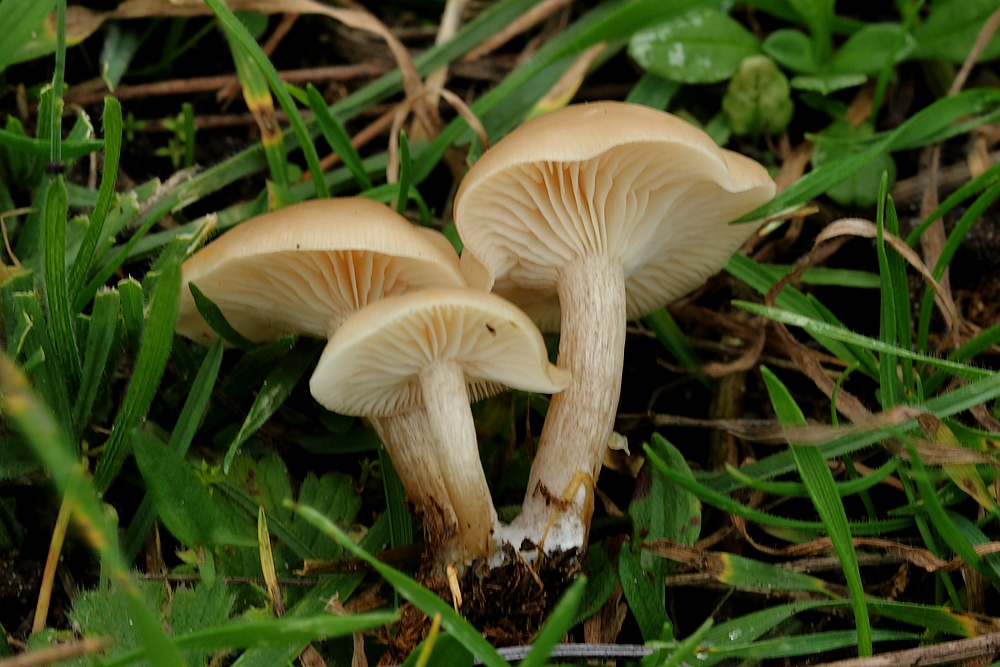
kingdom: Fungi
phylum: Basidiomycota
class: Agaricomycetes
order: Agaricales
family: Tricholomataceae
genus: Clitocybe
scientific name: Clitocybe
